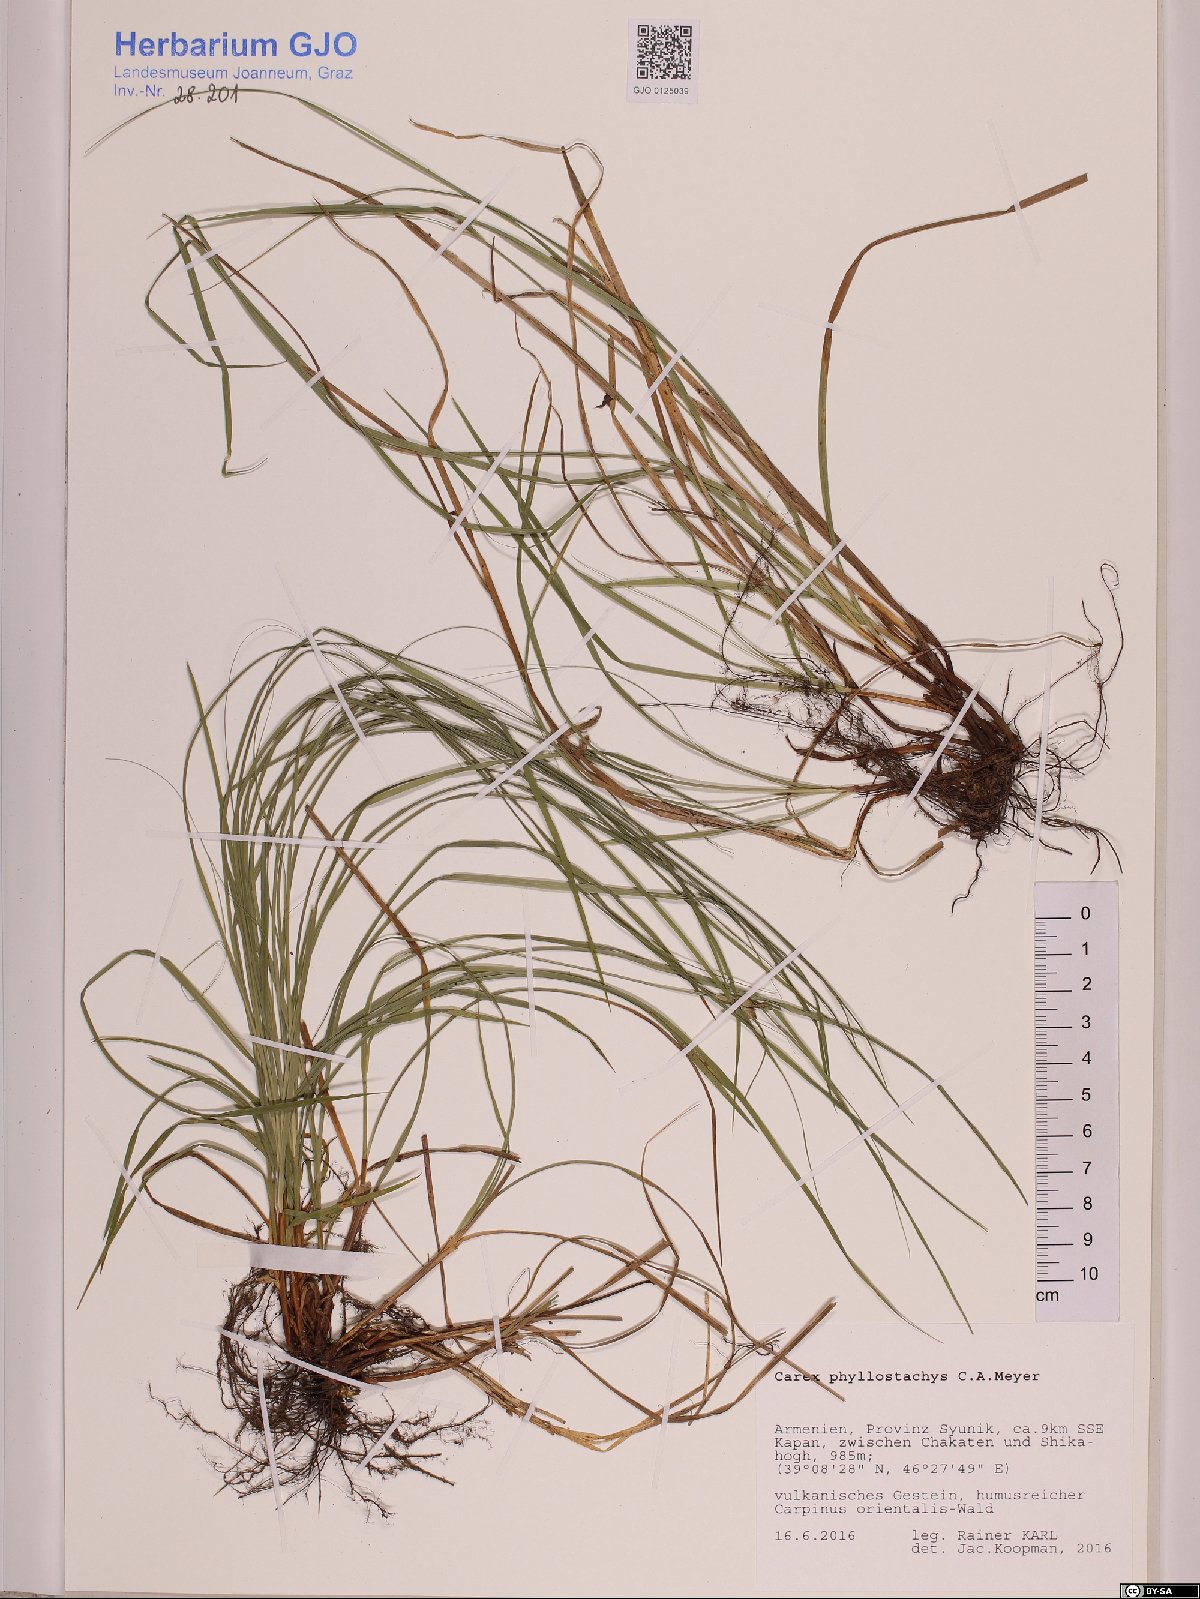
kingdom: Plantae
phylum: Tracheophyta
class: Liliopsida
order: Poales
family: Cyperaceae
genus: Carex
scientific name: Carex phyllostachys
